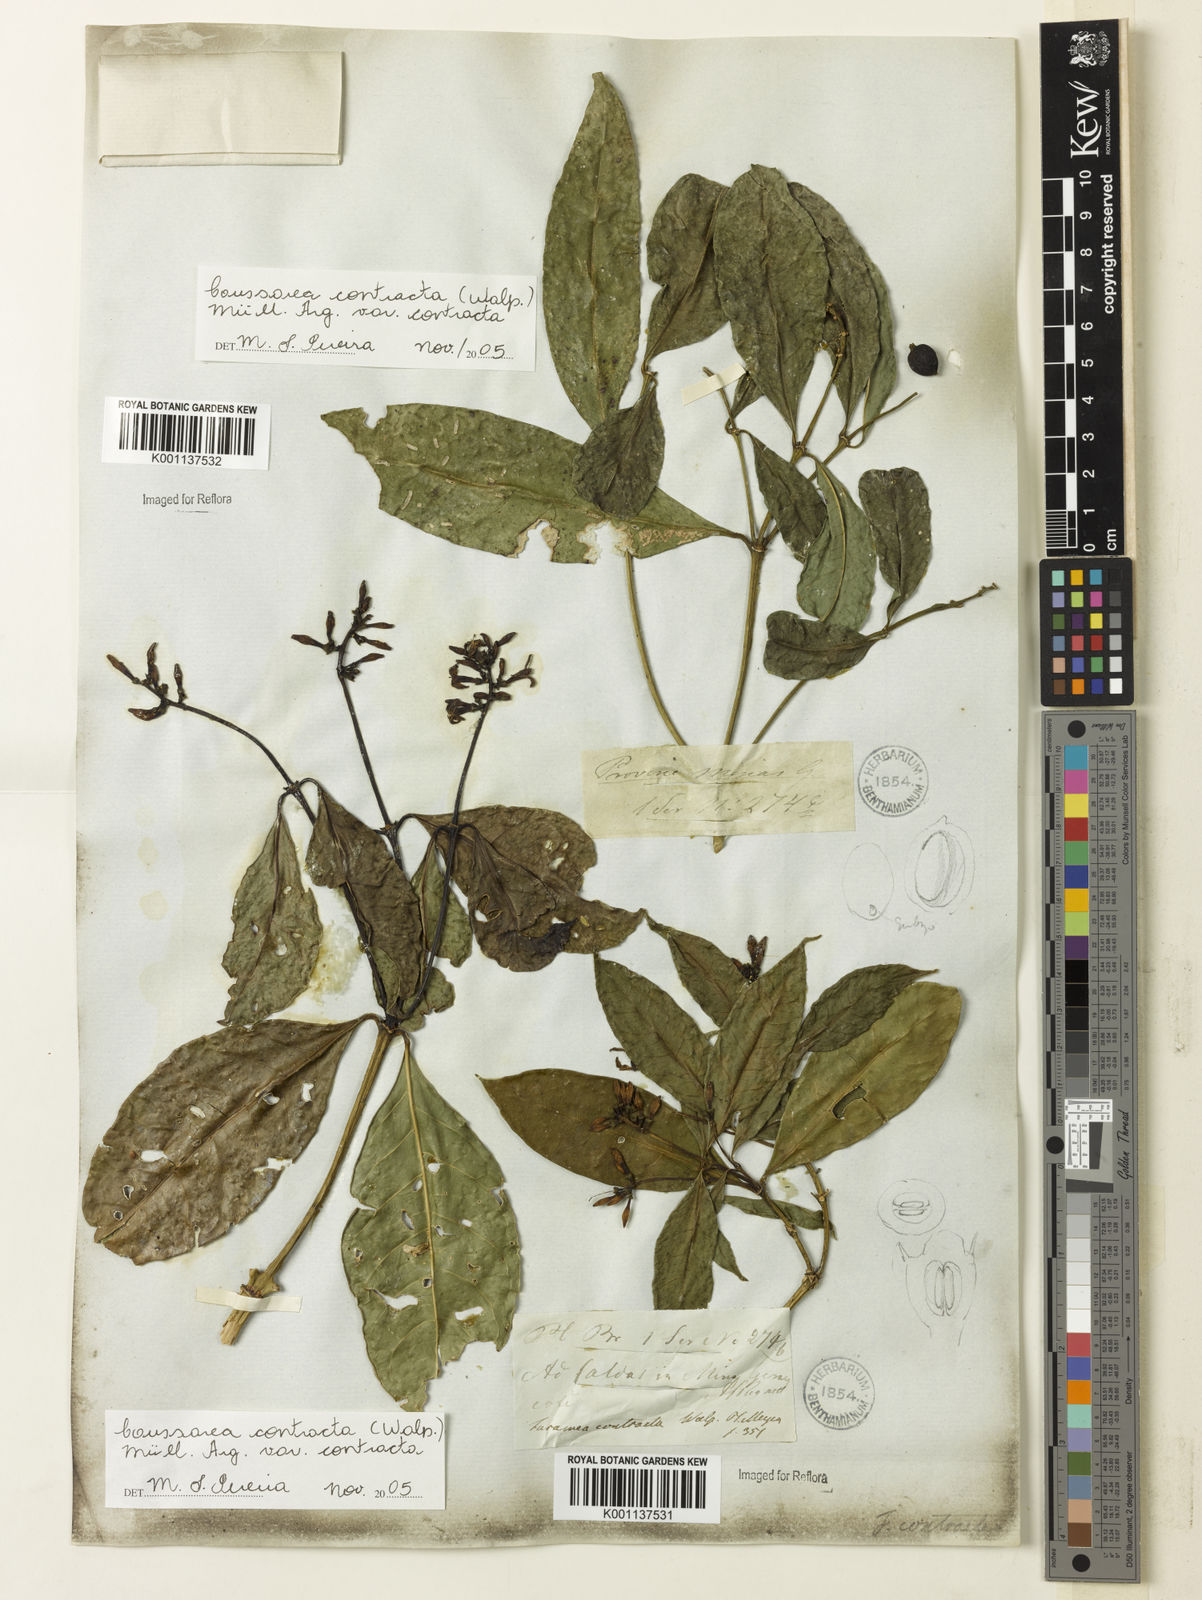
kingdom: Plantae
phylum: Tracheophyta
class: Magnoliopsida
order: Gentianales
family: Rubiaceae
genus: Coussarea
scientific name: Coussarea
